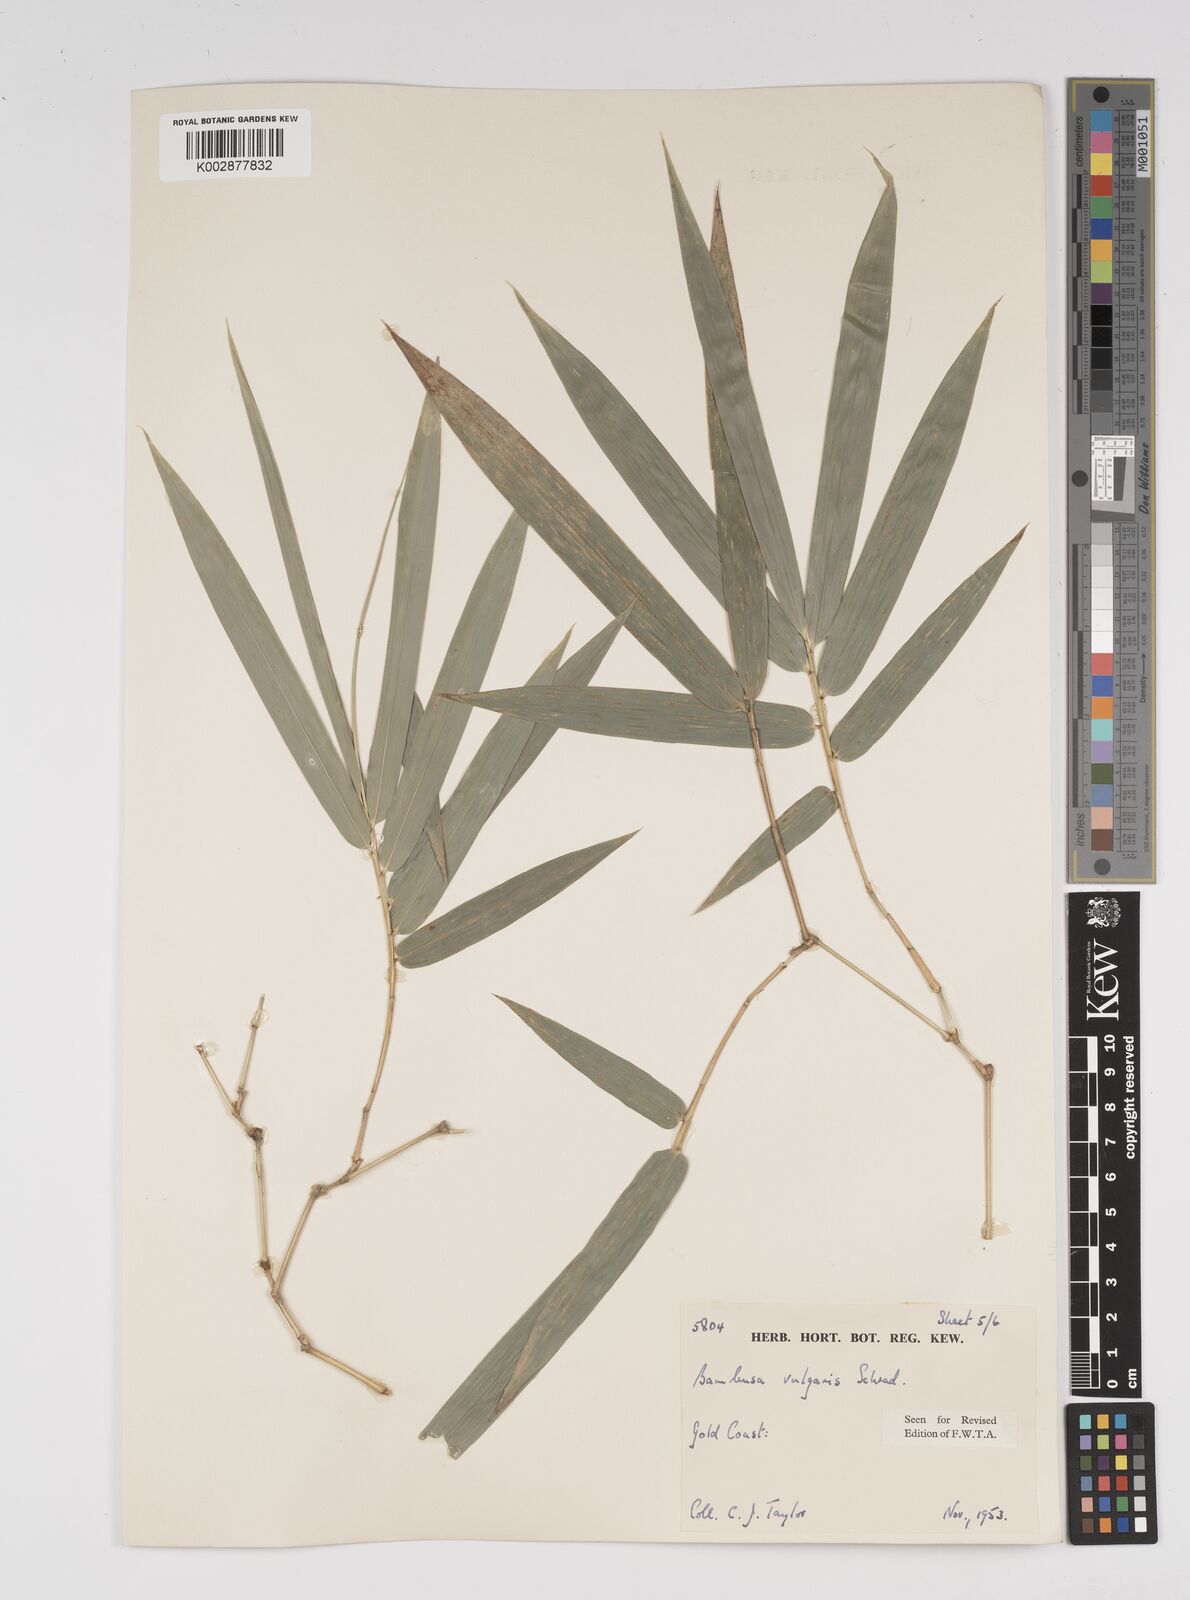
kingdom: Plantae
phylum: Tracheophyta
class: Liliopsida
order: Poales
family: Poaceae
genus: Bambusa
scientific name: Bambusa vulgaris
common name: Common bamboo
